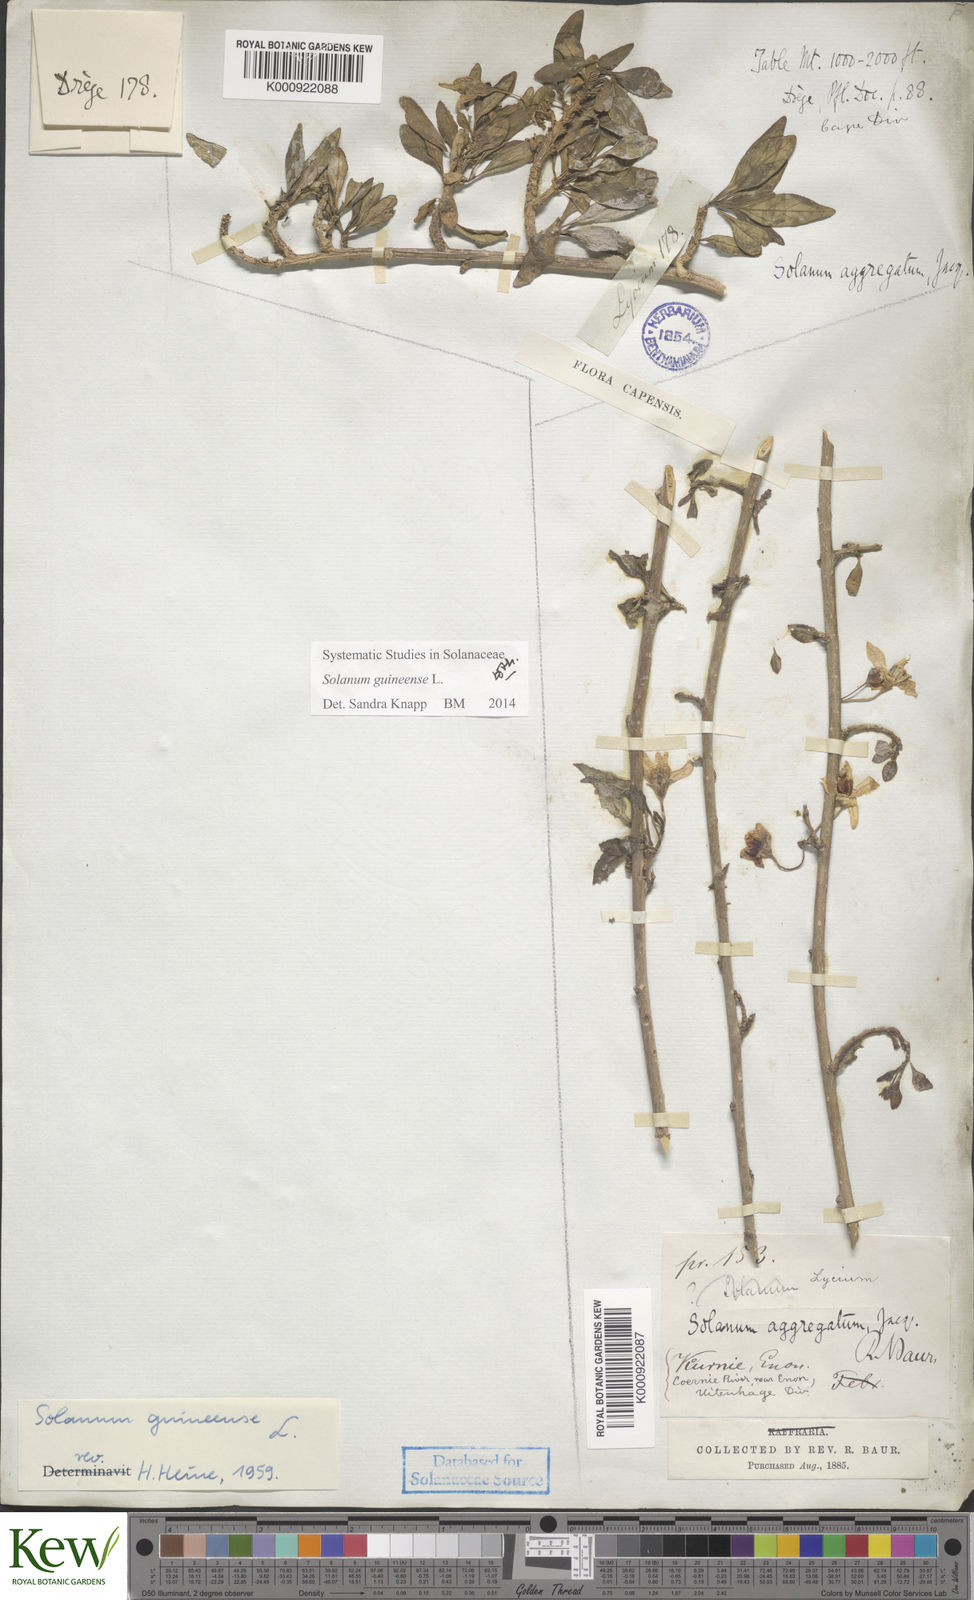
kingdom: Plantae
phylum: Tracheophyta
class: Magnoliopsida
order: Solanales
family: Solanaceae
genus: Solanum
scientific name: Solanum guineense
